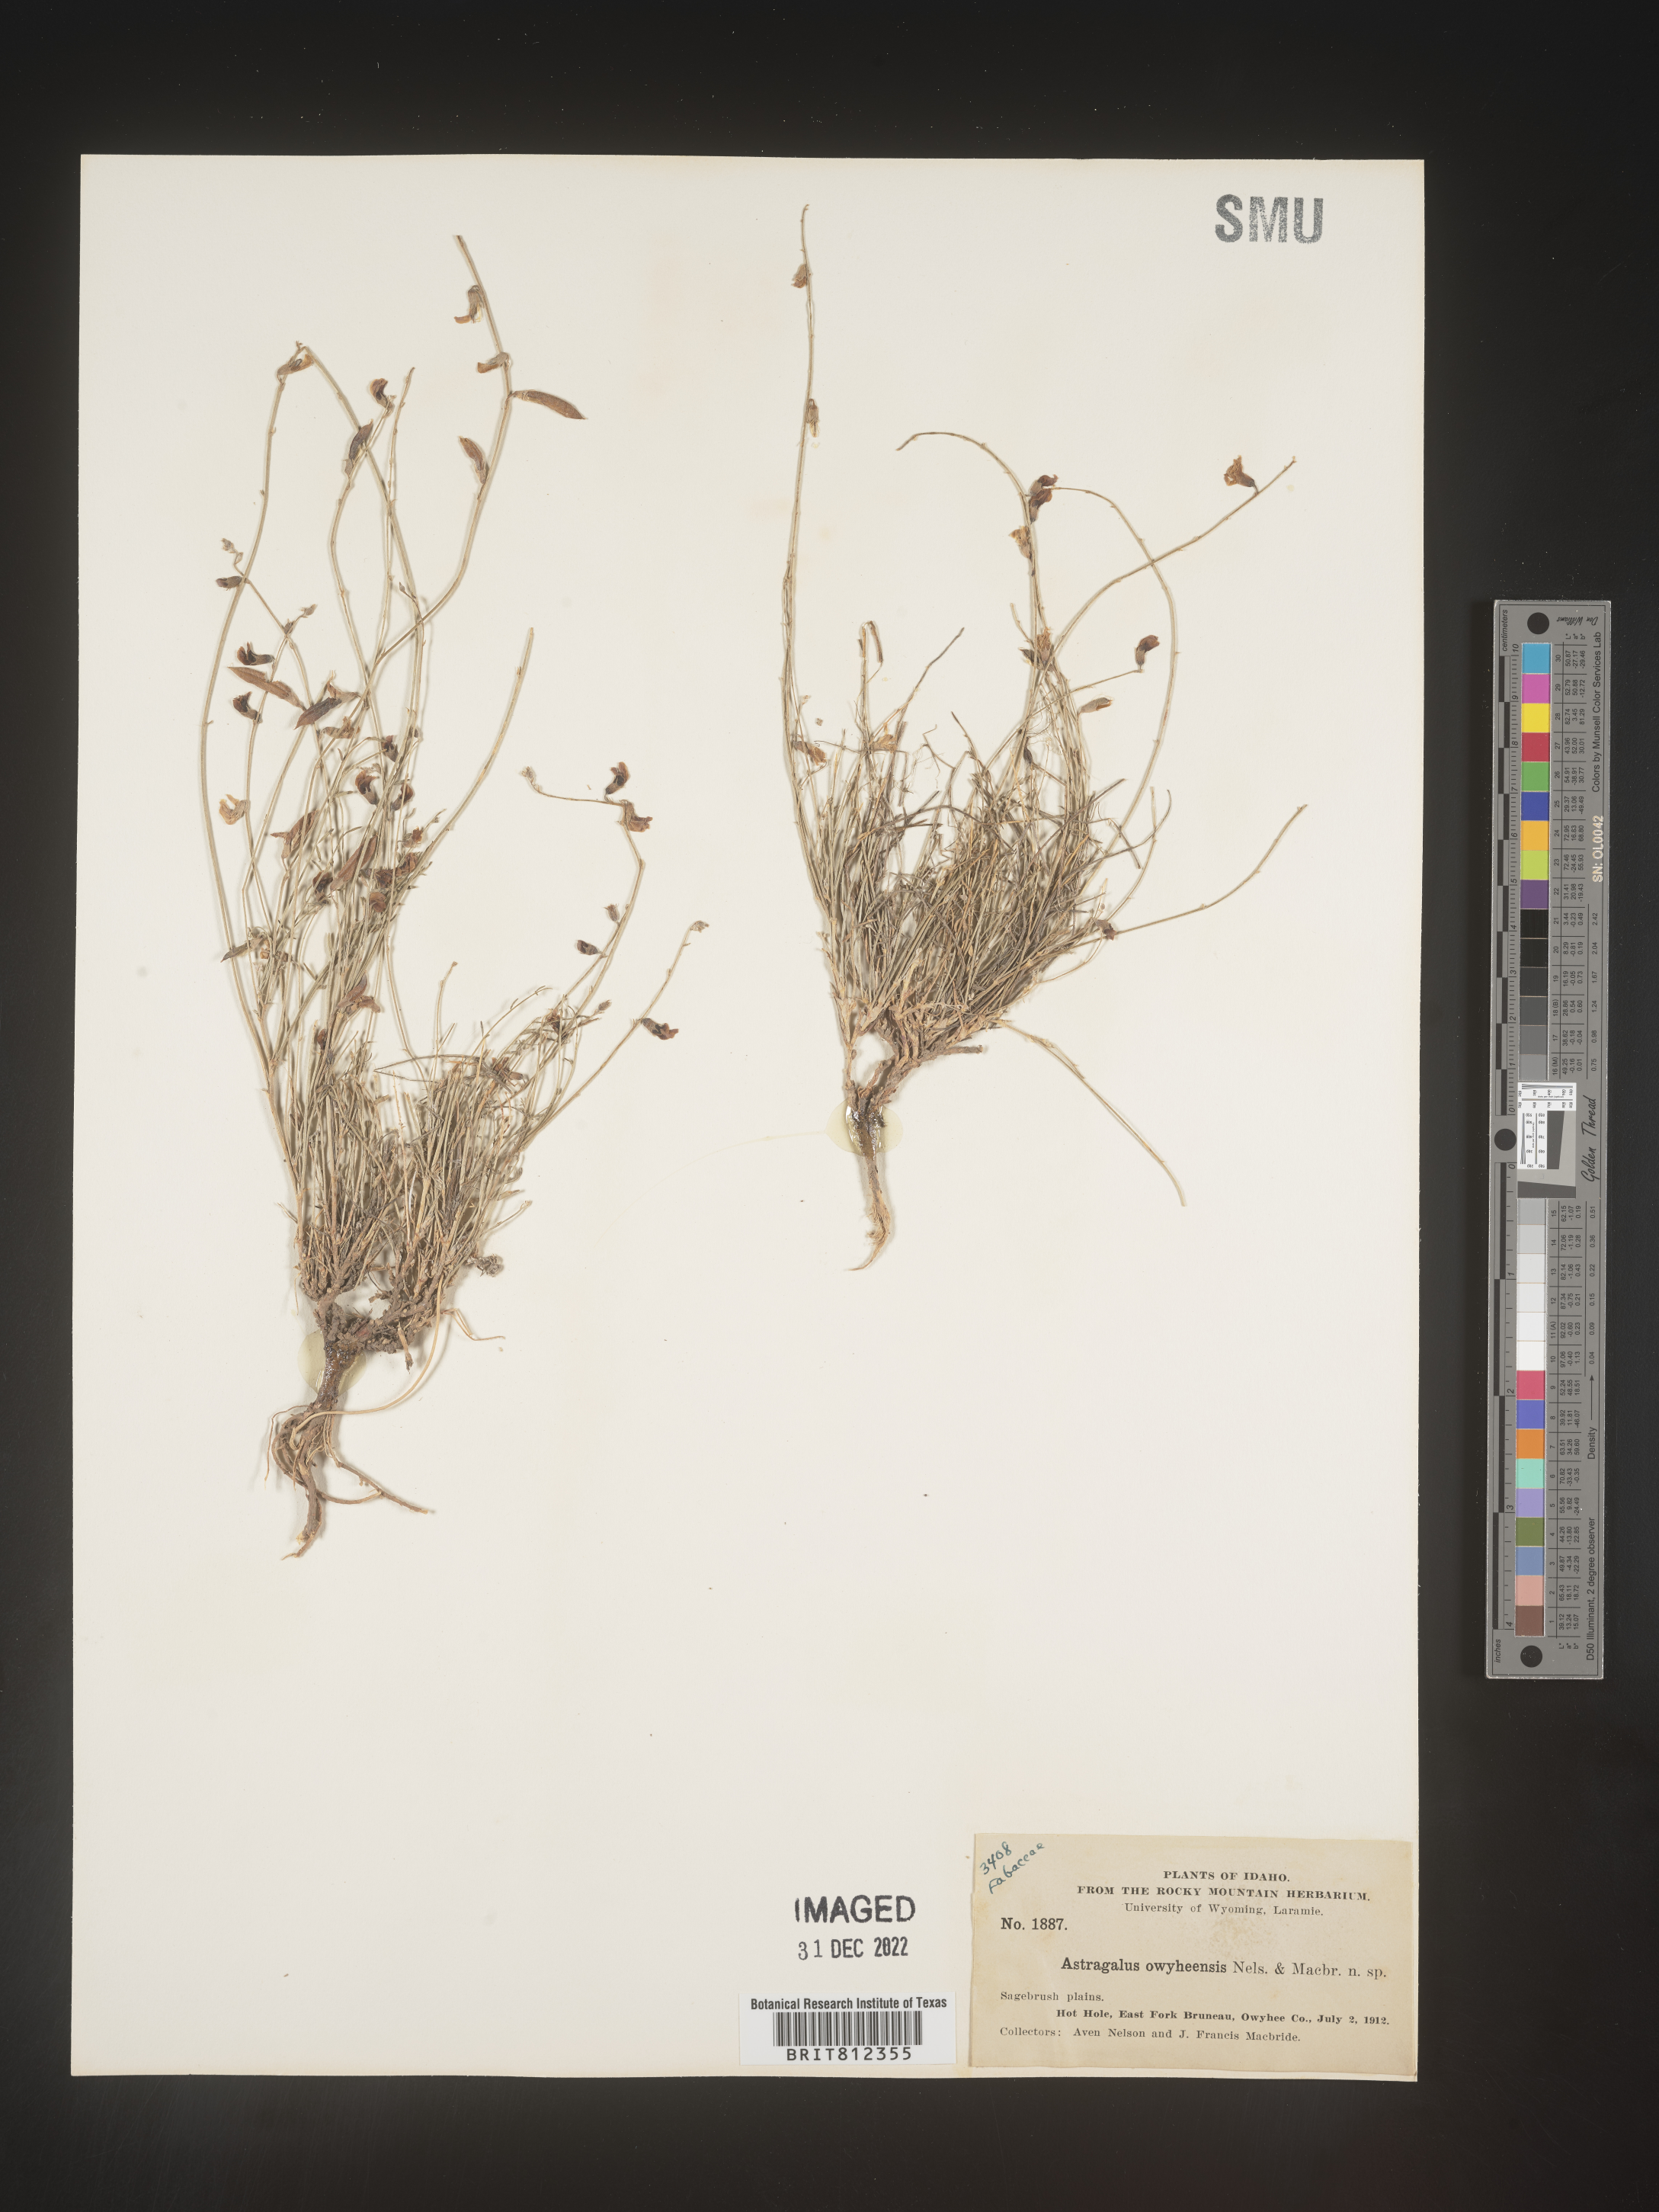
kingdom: Plantae
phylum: Tracheophyta
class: Magnoliopsida
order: Fabales
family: Fabaceae
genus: Astragalus
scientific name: Astragalus
